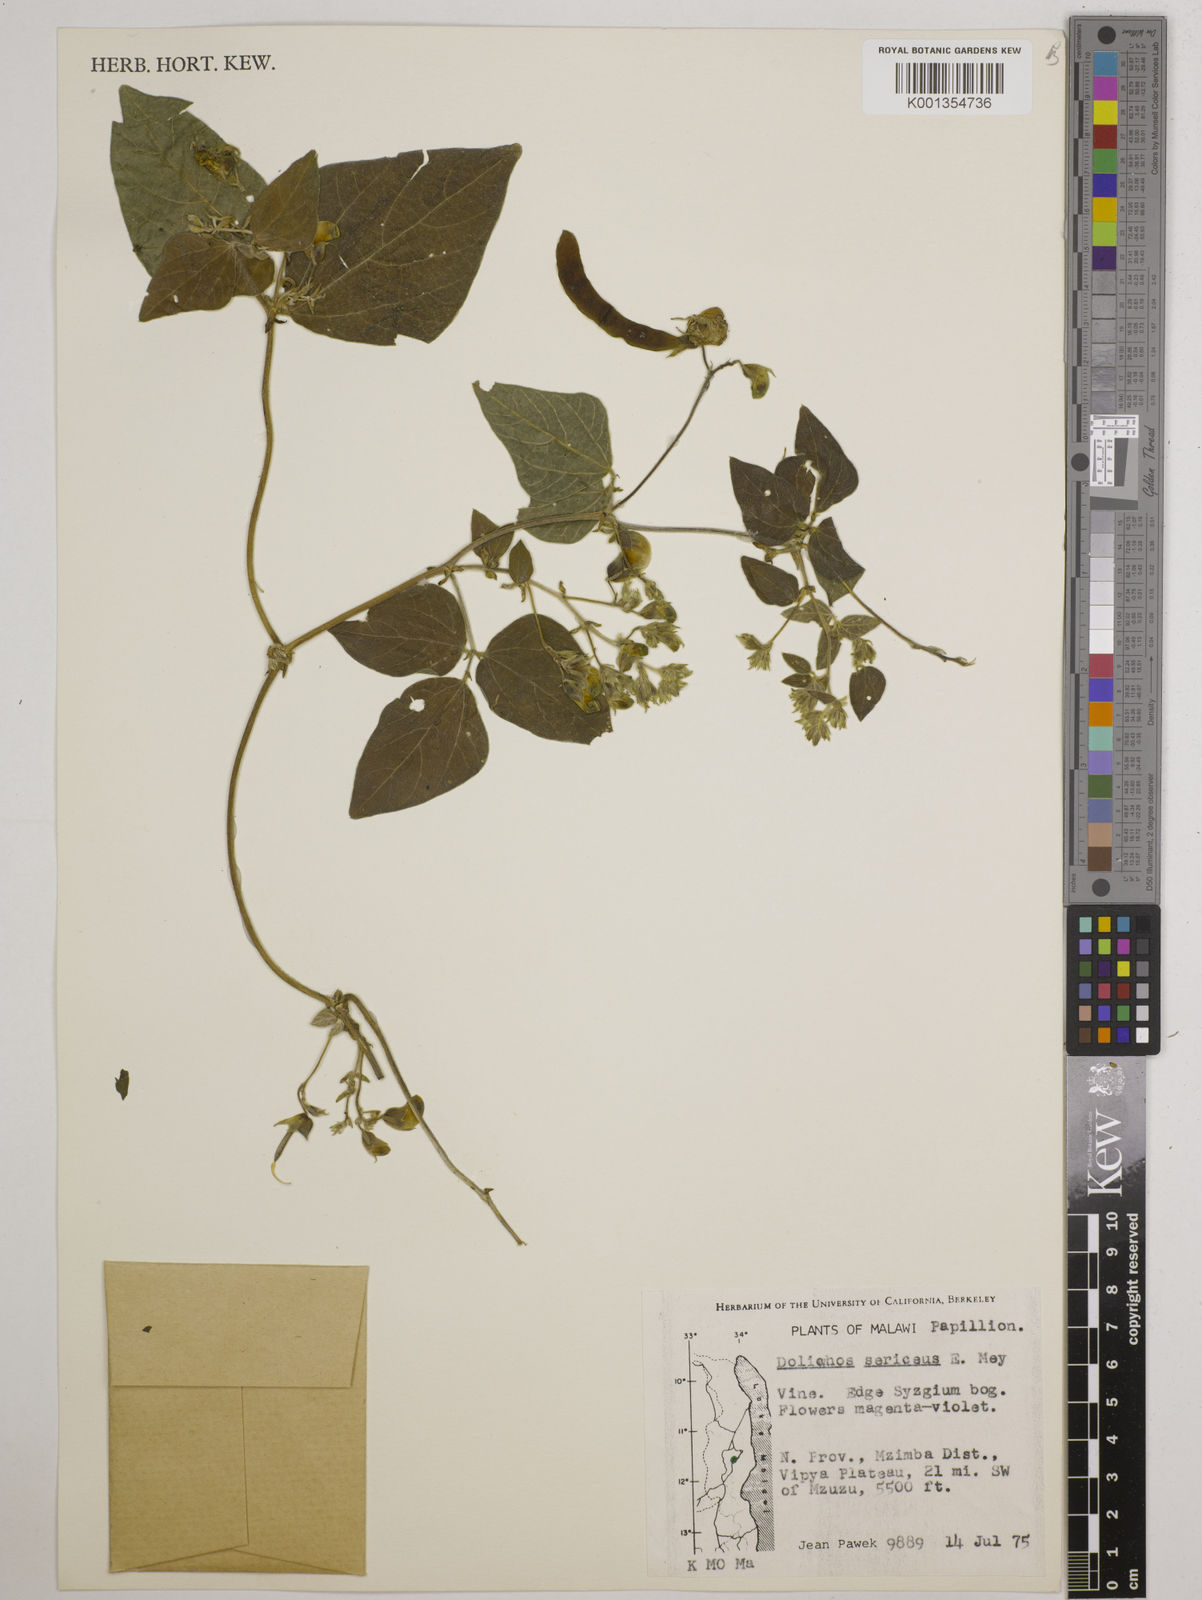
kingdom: Plantae
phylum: Tracheophyta
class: Magnoliopsida
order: Fabales
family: Fabaceae
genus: Dolichos
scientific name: Dolichos
